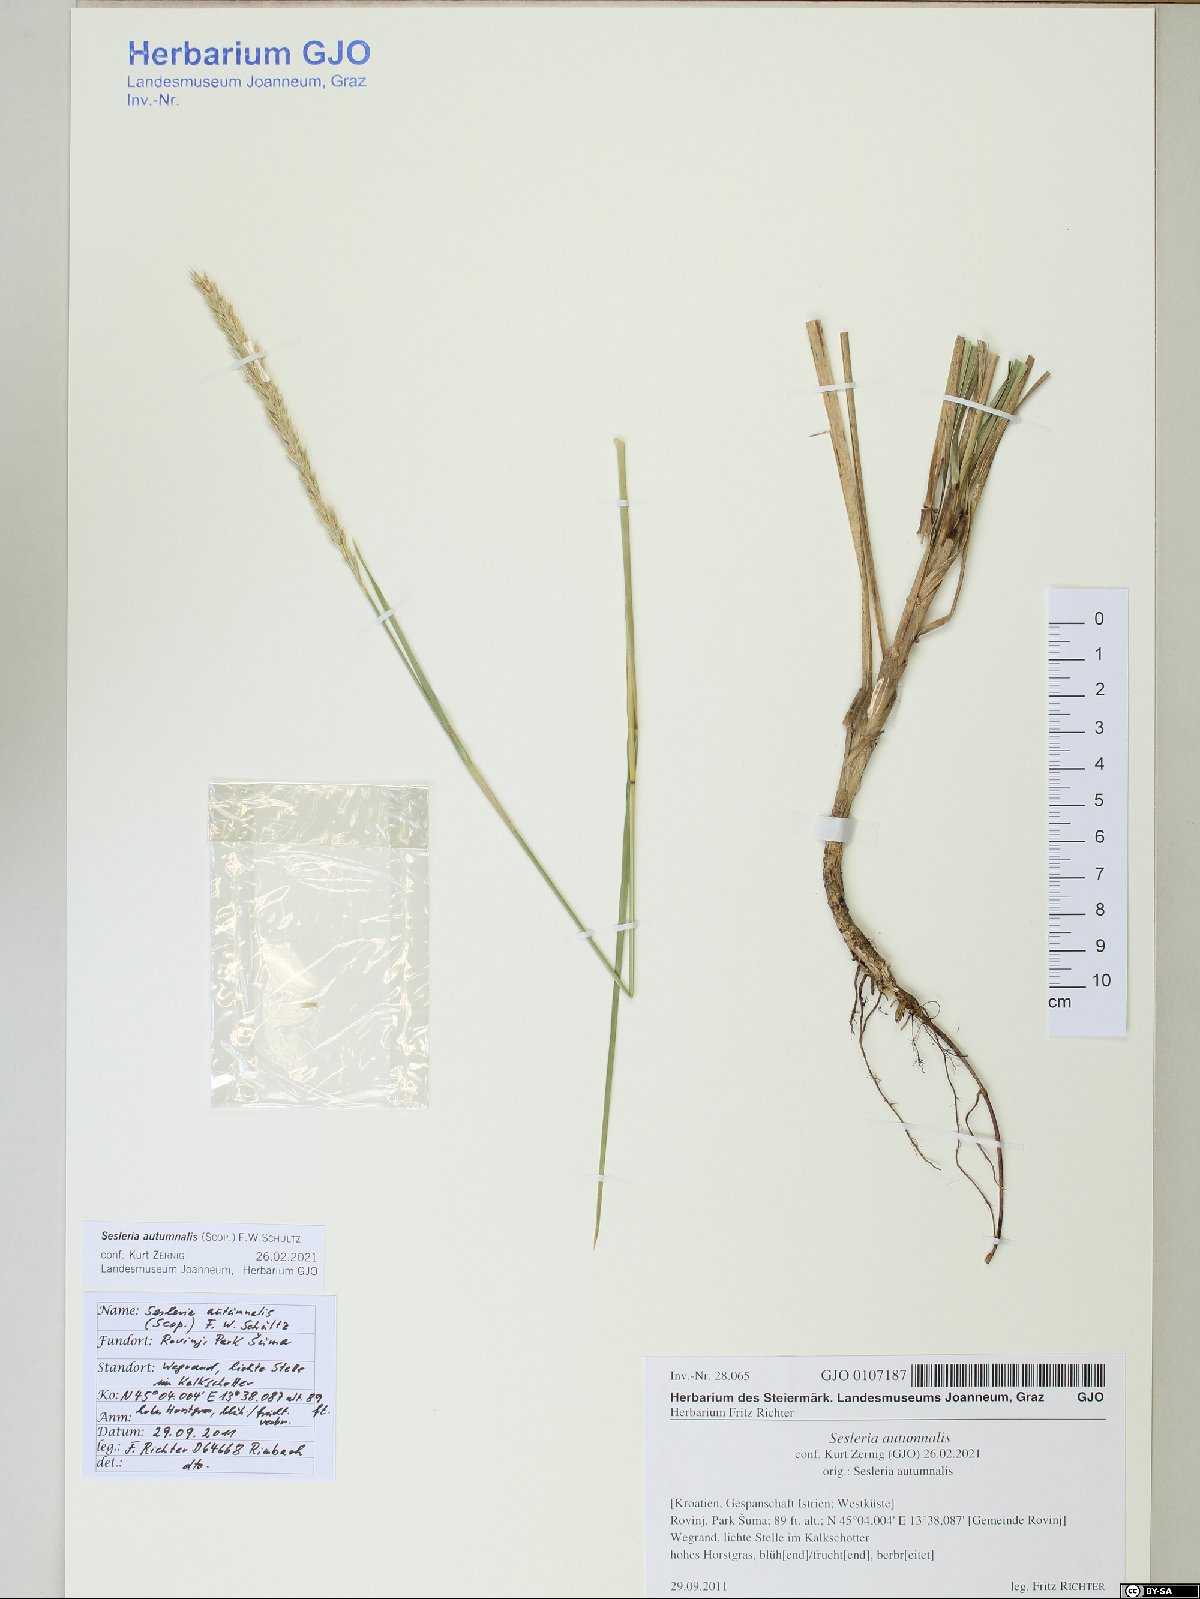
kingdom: Plantae
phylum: Tracheophyta
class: Liliopsida
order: Poales
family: Poaceae
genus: Sesleria
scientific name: Sesleria autumnalis
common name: Autumn moor grass
